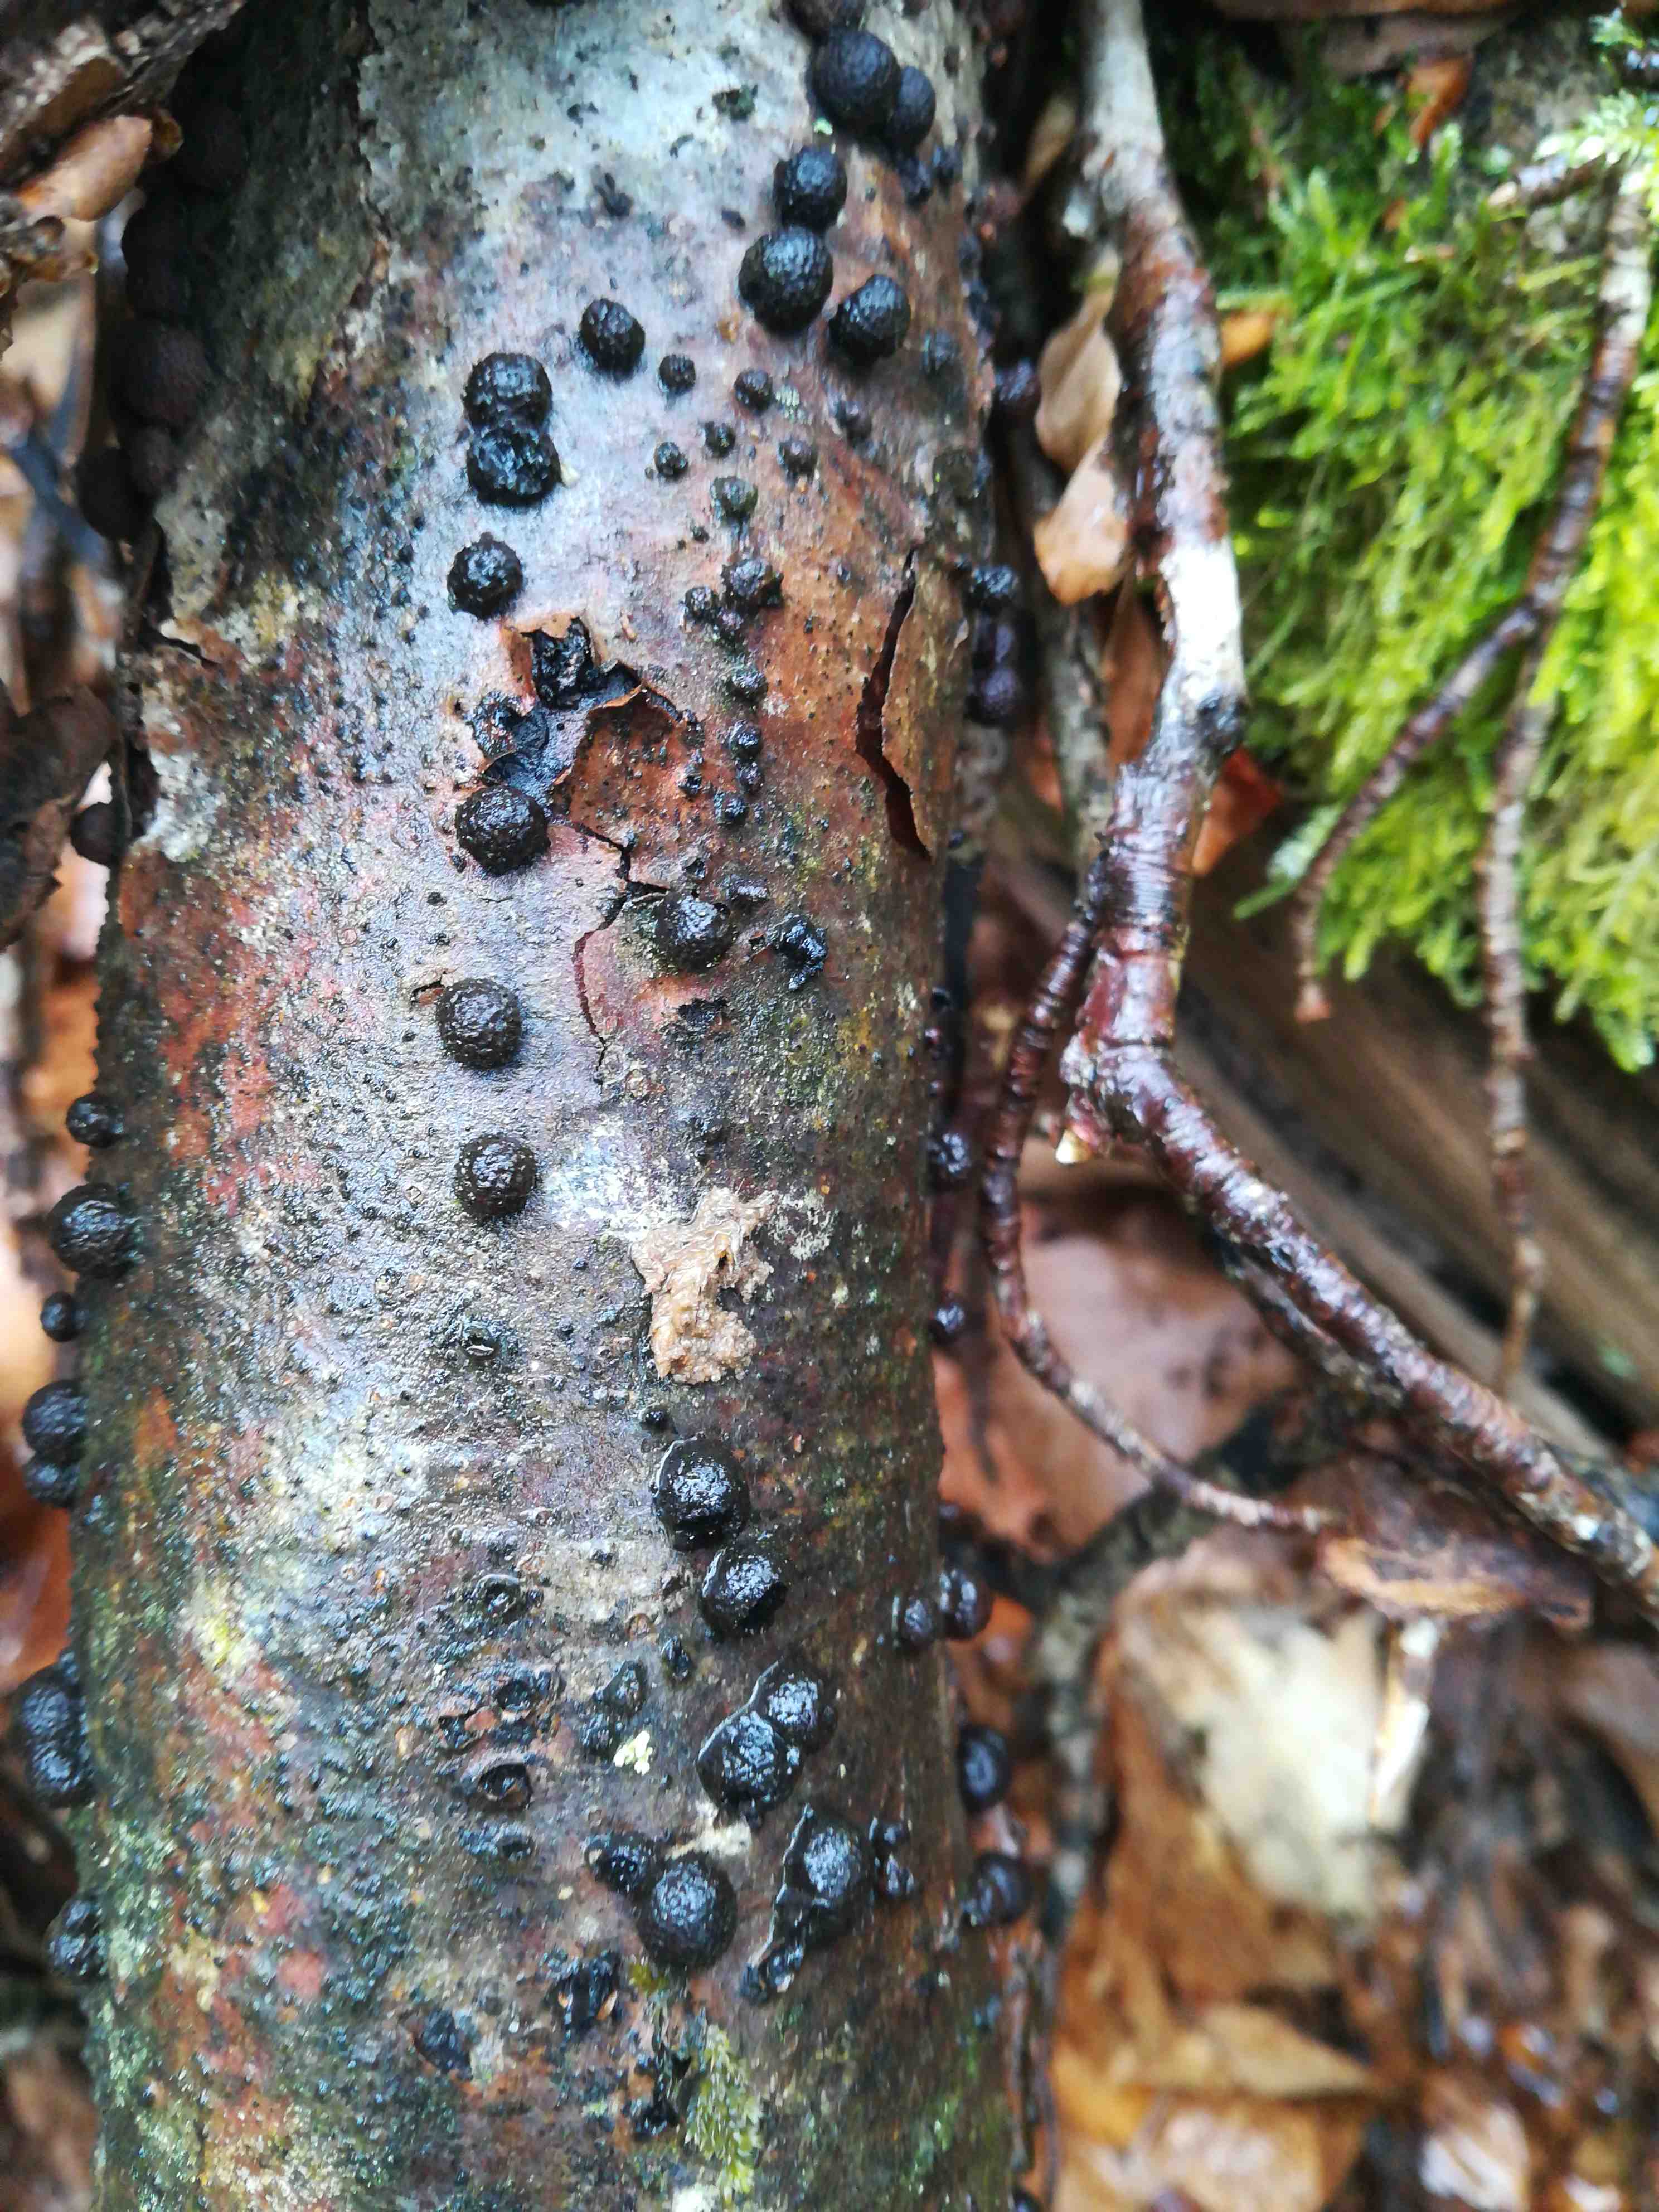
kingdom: Fungi
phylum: Ascomycota
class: Sordariomycetes
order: Xylariales
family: Hypoxylaceae
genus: Hypoxylon
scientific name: Hypoxylon fragiforme
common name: kuljordbær
